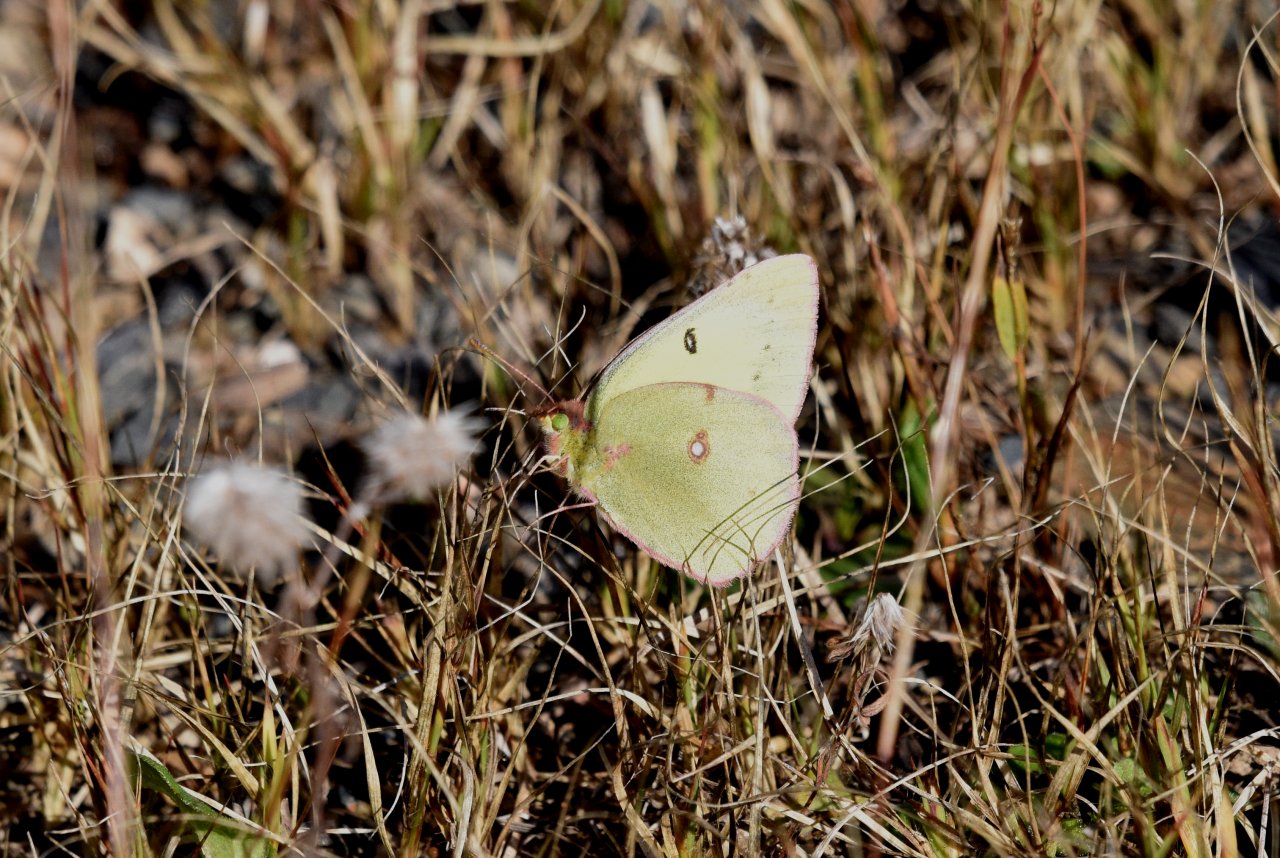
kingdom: Animalia
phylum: Arthropoda
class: Insecta
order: Lepidoptera
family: Pieridae
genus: Colias
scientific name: Colias philodice
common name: Clouded Sulphur
